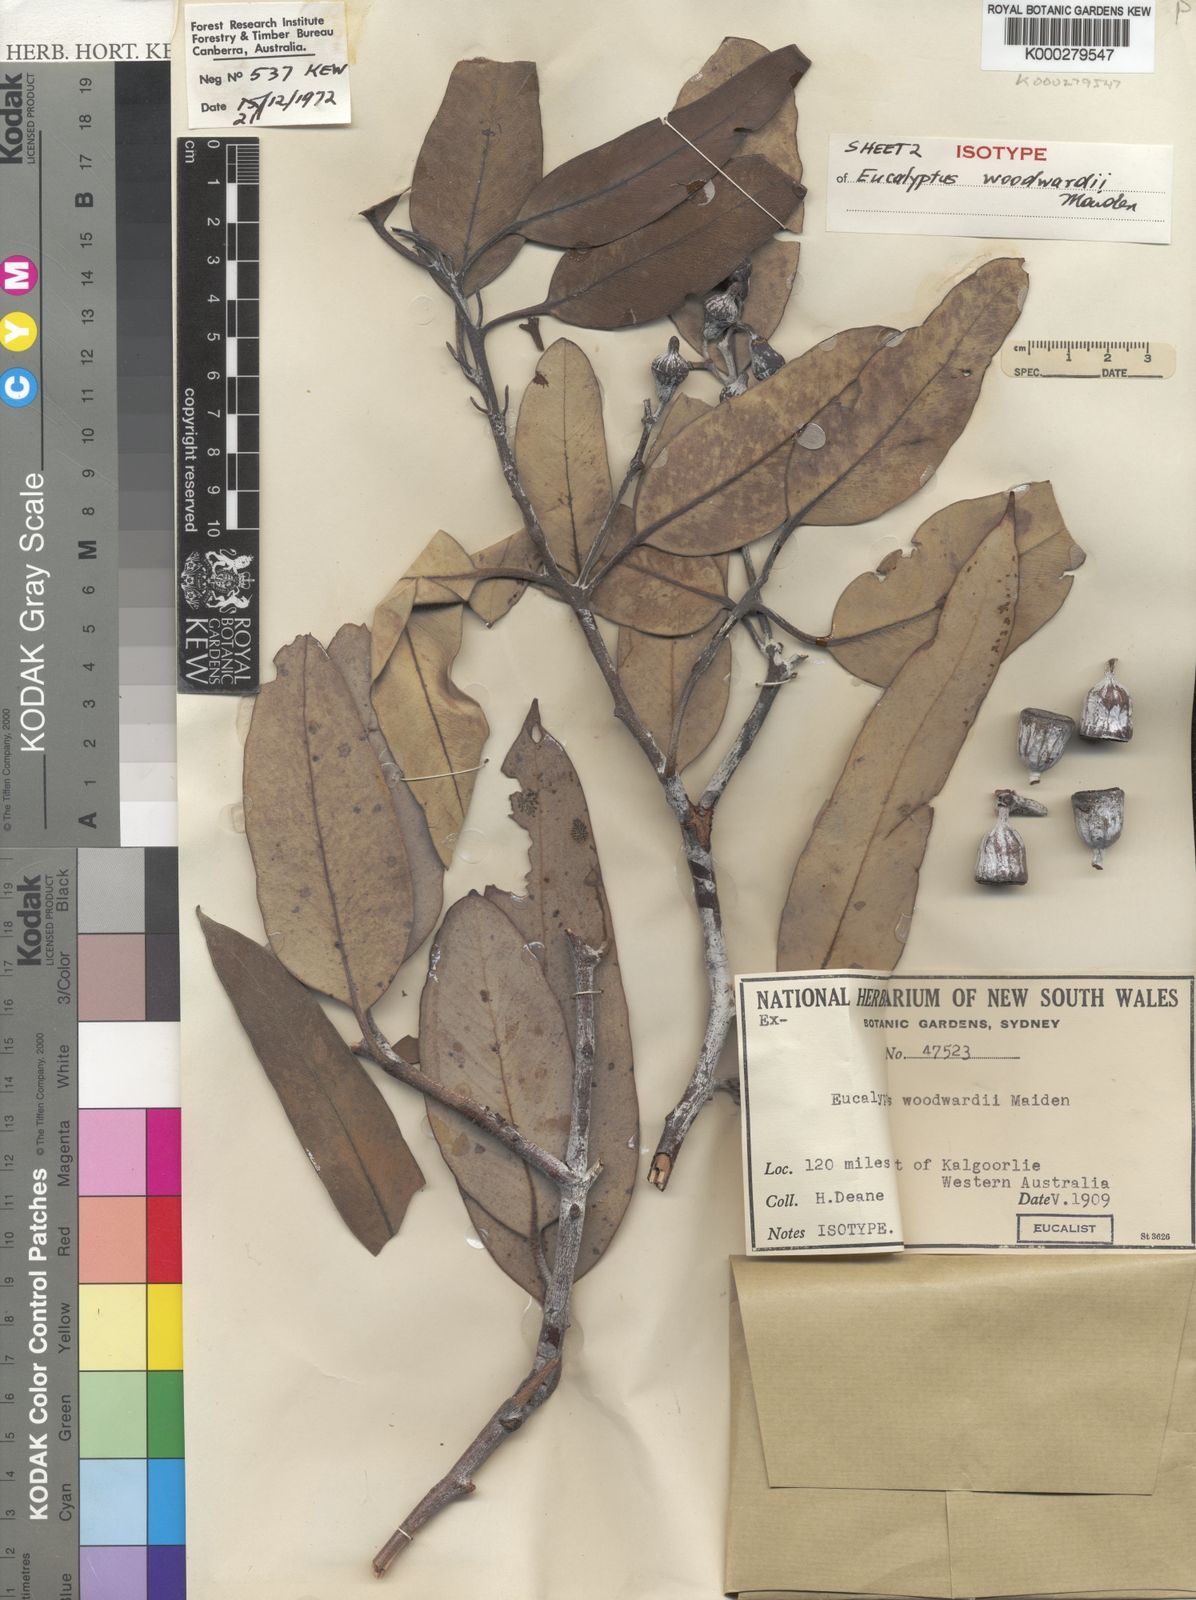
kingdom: Plantae
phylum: Tracheophyta
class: Magnoliopsida
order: Myrtales
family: Myrtaceae
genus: Eucalyptus
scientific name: Eucalyptus woodwardii
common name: Lemon-flowered mallee
